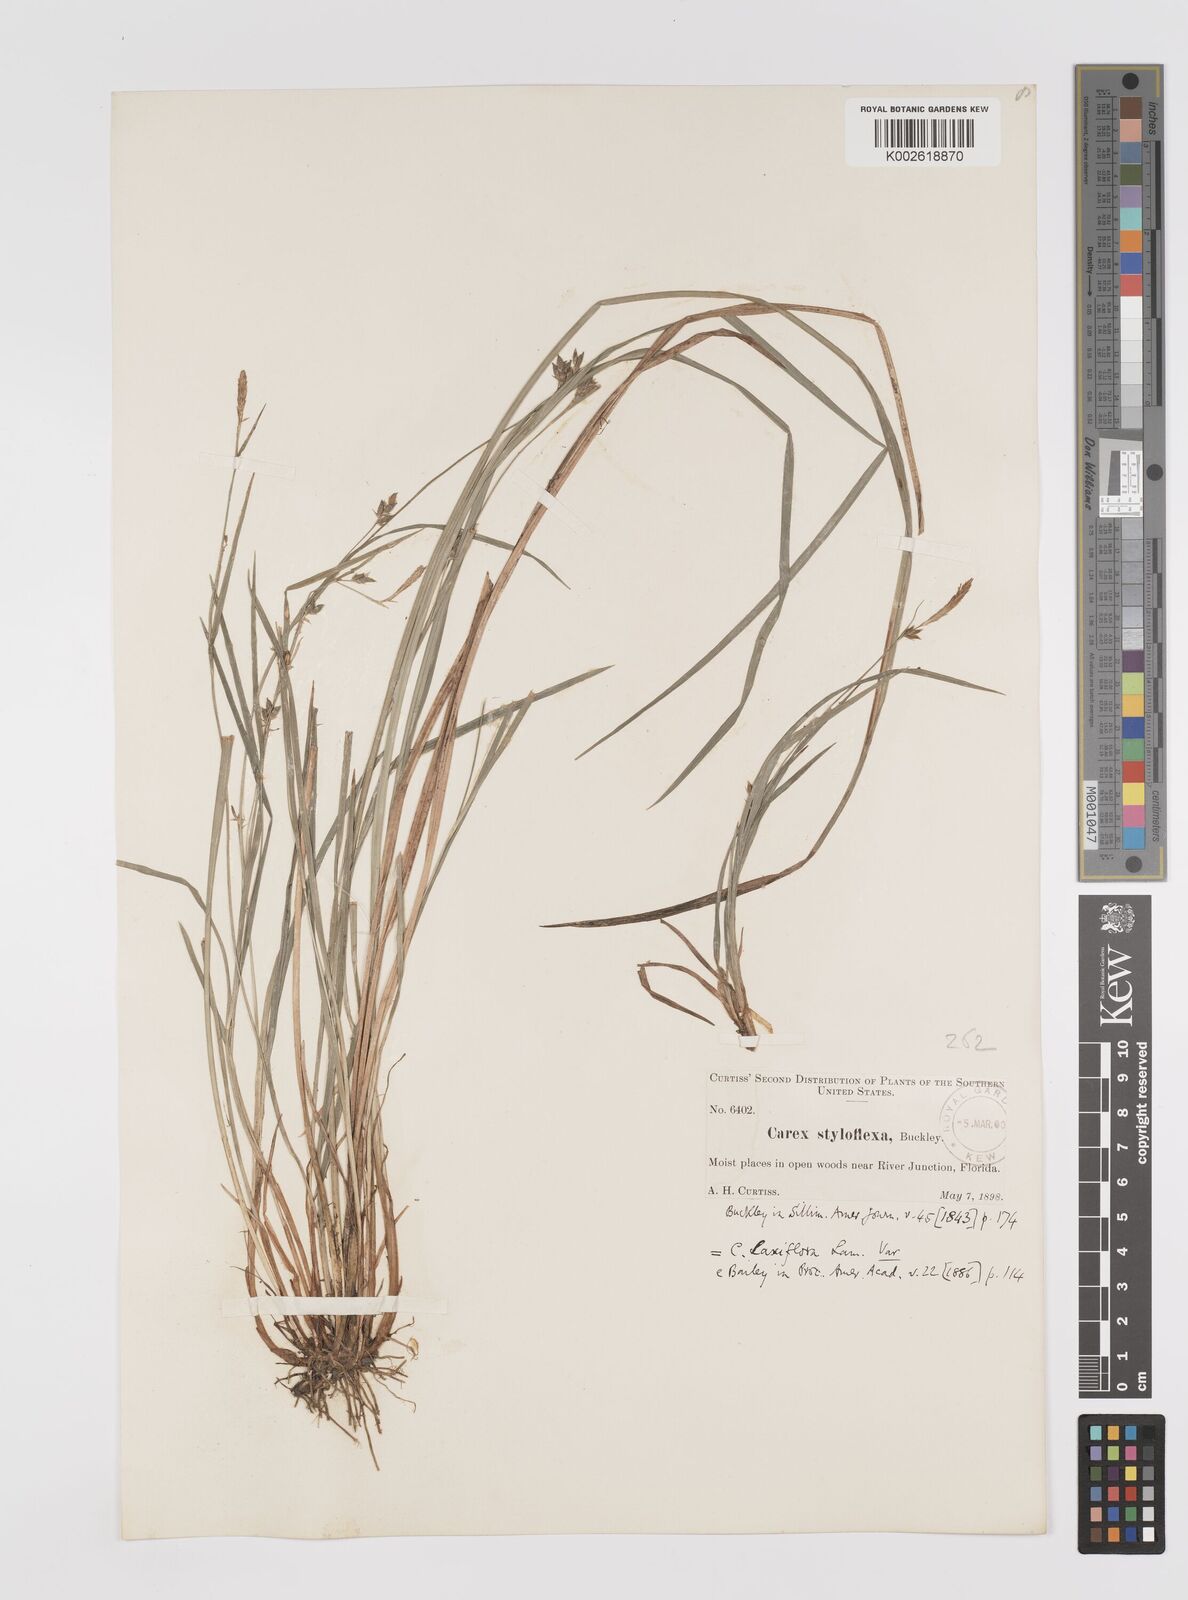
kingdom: Plantae
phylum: Tracheophyta
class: Liliopsida
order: Poales
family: Cyperaceae
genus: Carex
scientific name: Carex styloflexa
